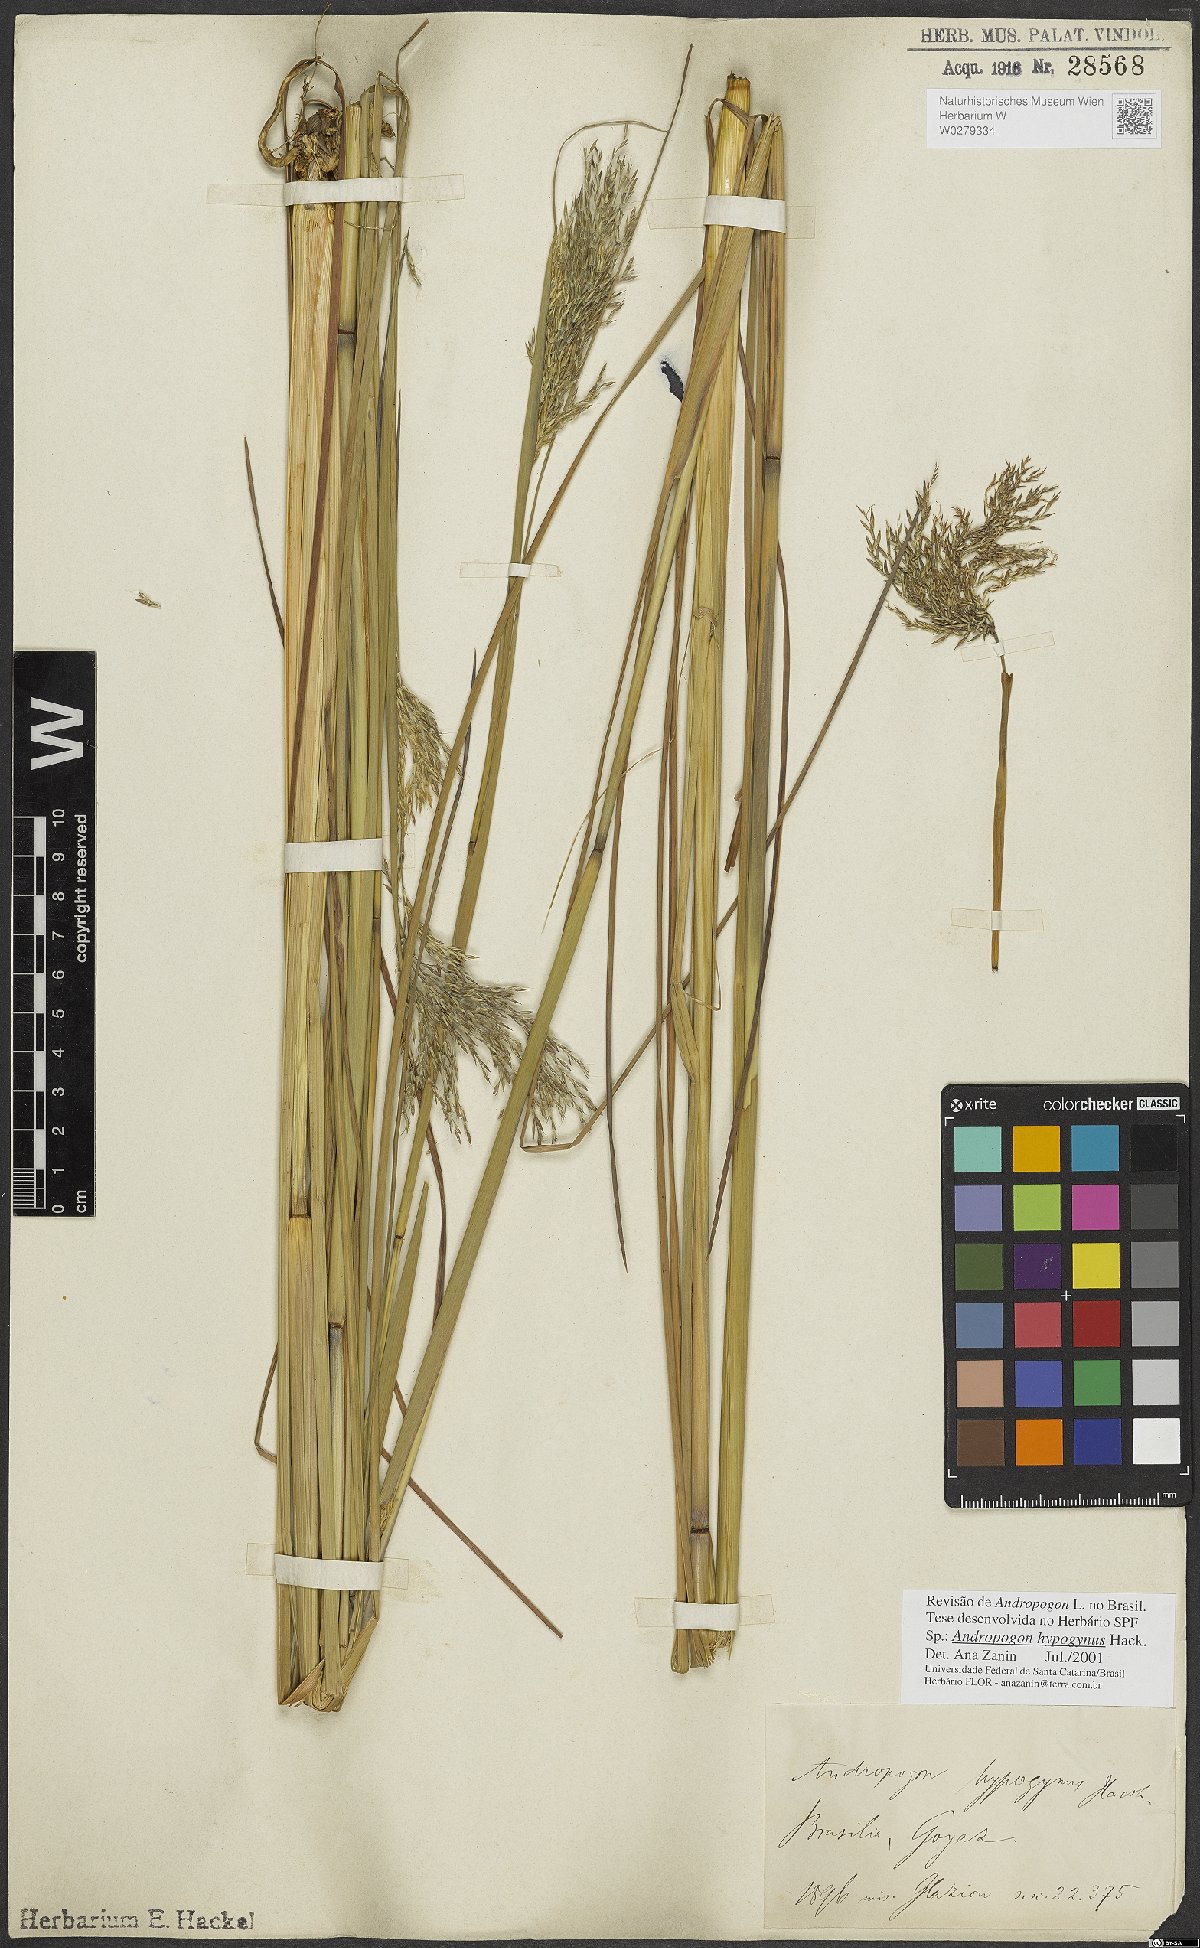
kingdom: Plantae
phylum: Tracheophyta
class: Liliopsida
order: Poales
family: Poaceae
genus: Andropogon
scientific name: Andropogon hypogynus
